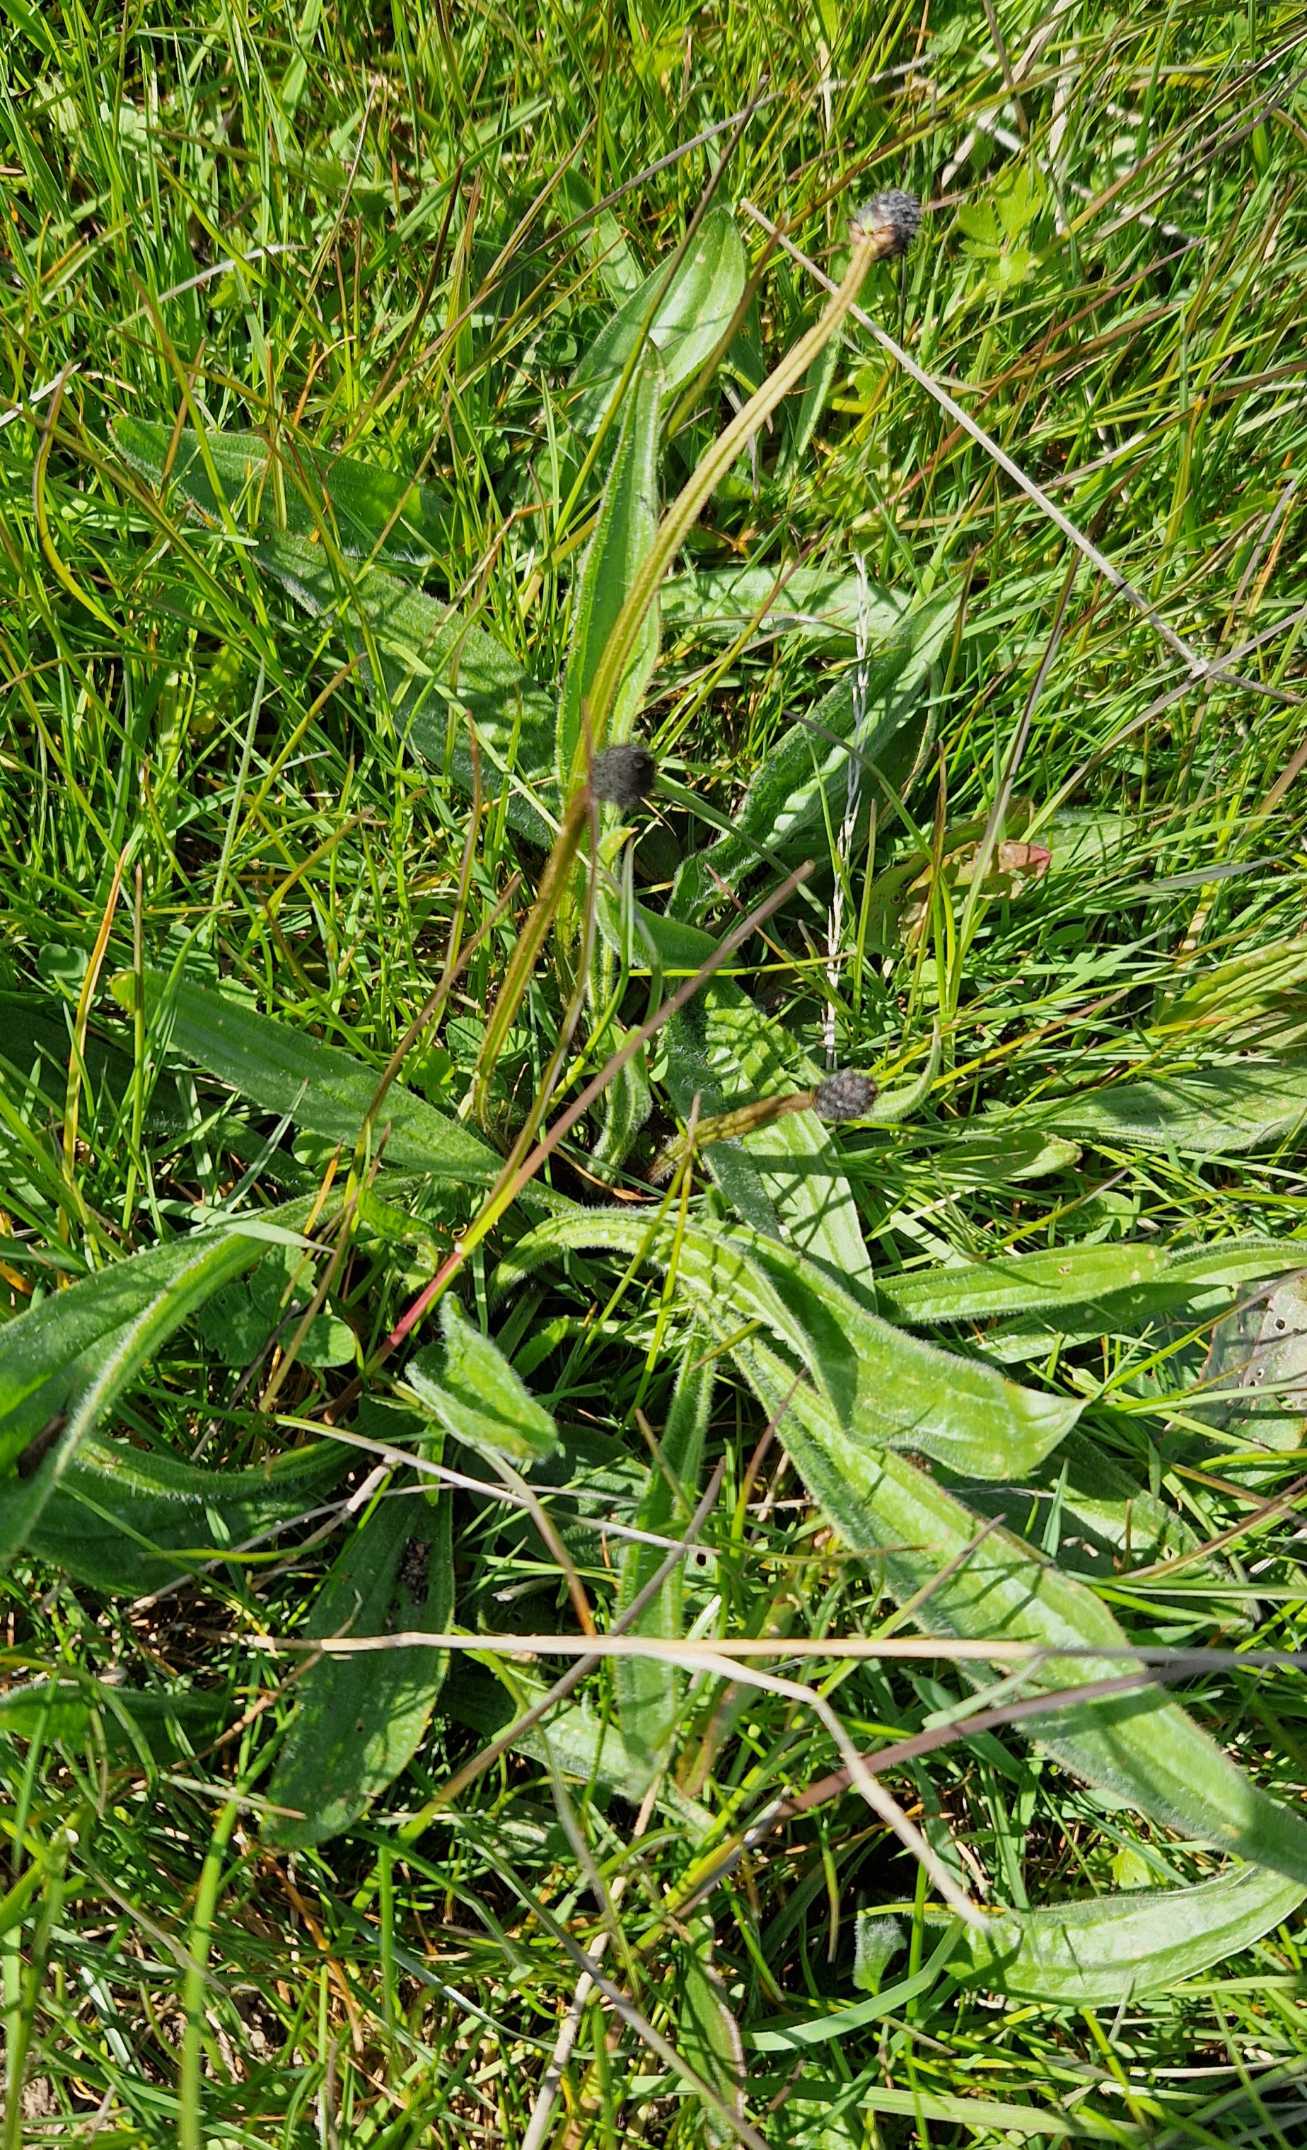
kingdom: Plantae
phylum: Tracheophyta
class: Magnoliopsida
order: Lamiales
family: Plantaginaceae
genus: Plantago
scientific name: Plantago lanceolata
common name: Lancet-vejbred
